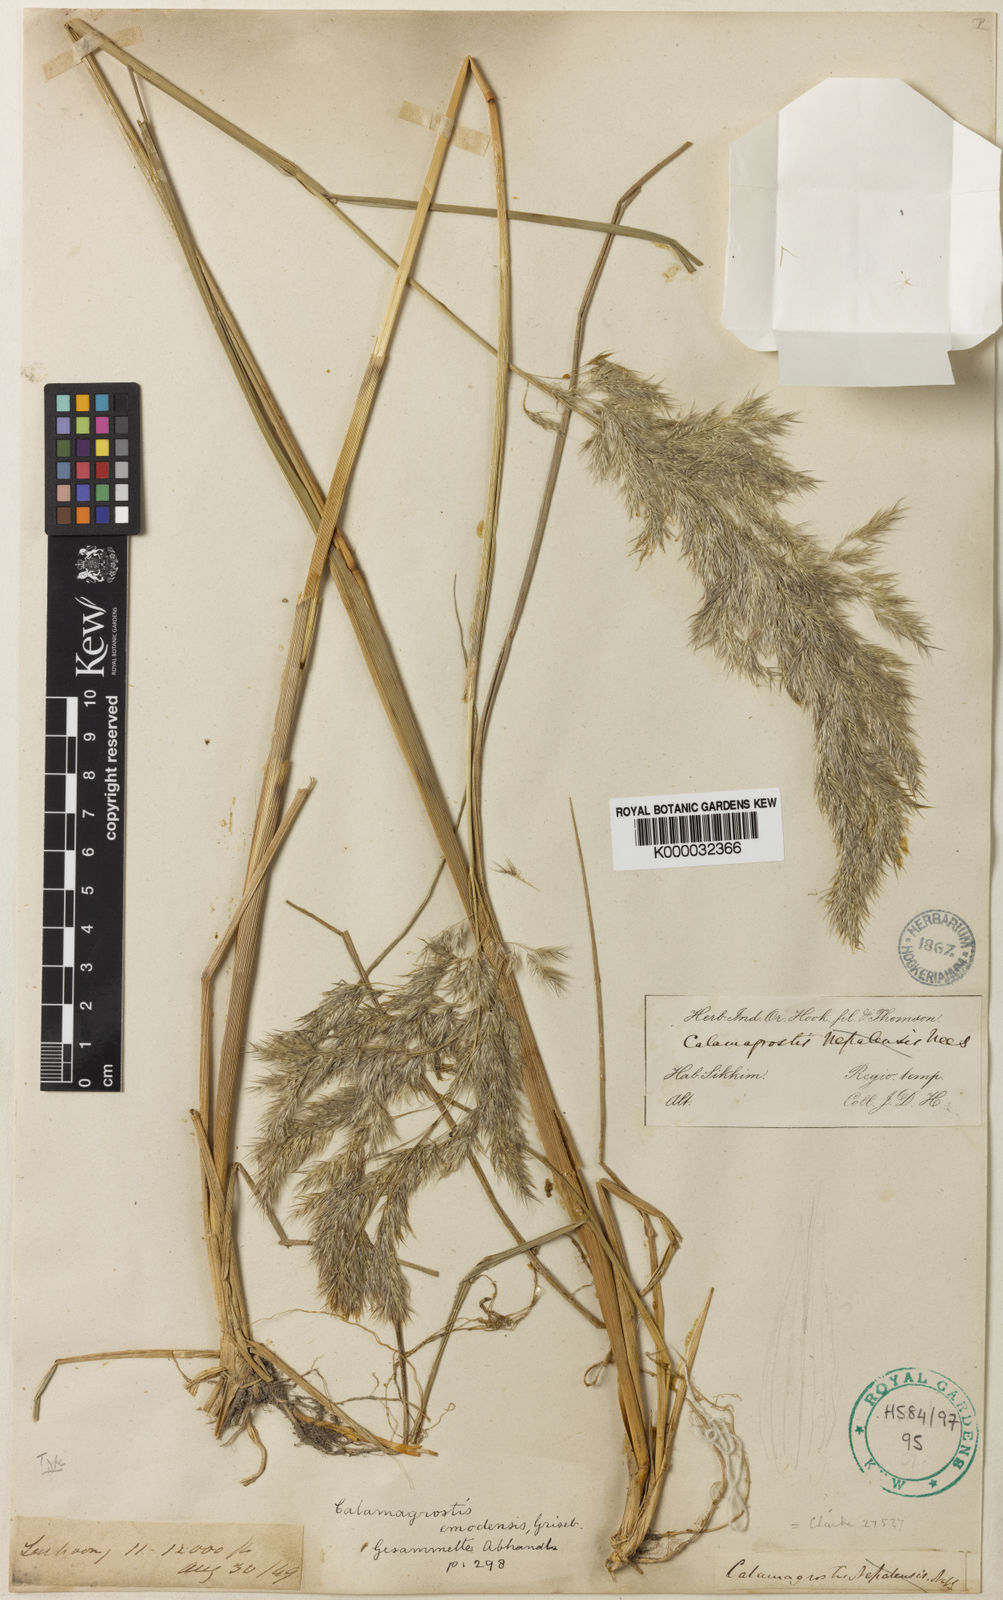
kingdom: Plantae
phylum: Tracheophyta
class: Liliopsida
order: Poales
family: Poaceae
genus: Calamagrostis
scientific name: Calamagrostis emodensis
